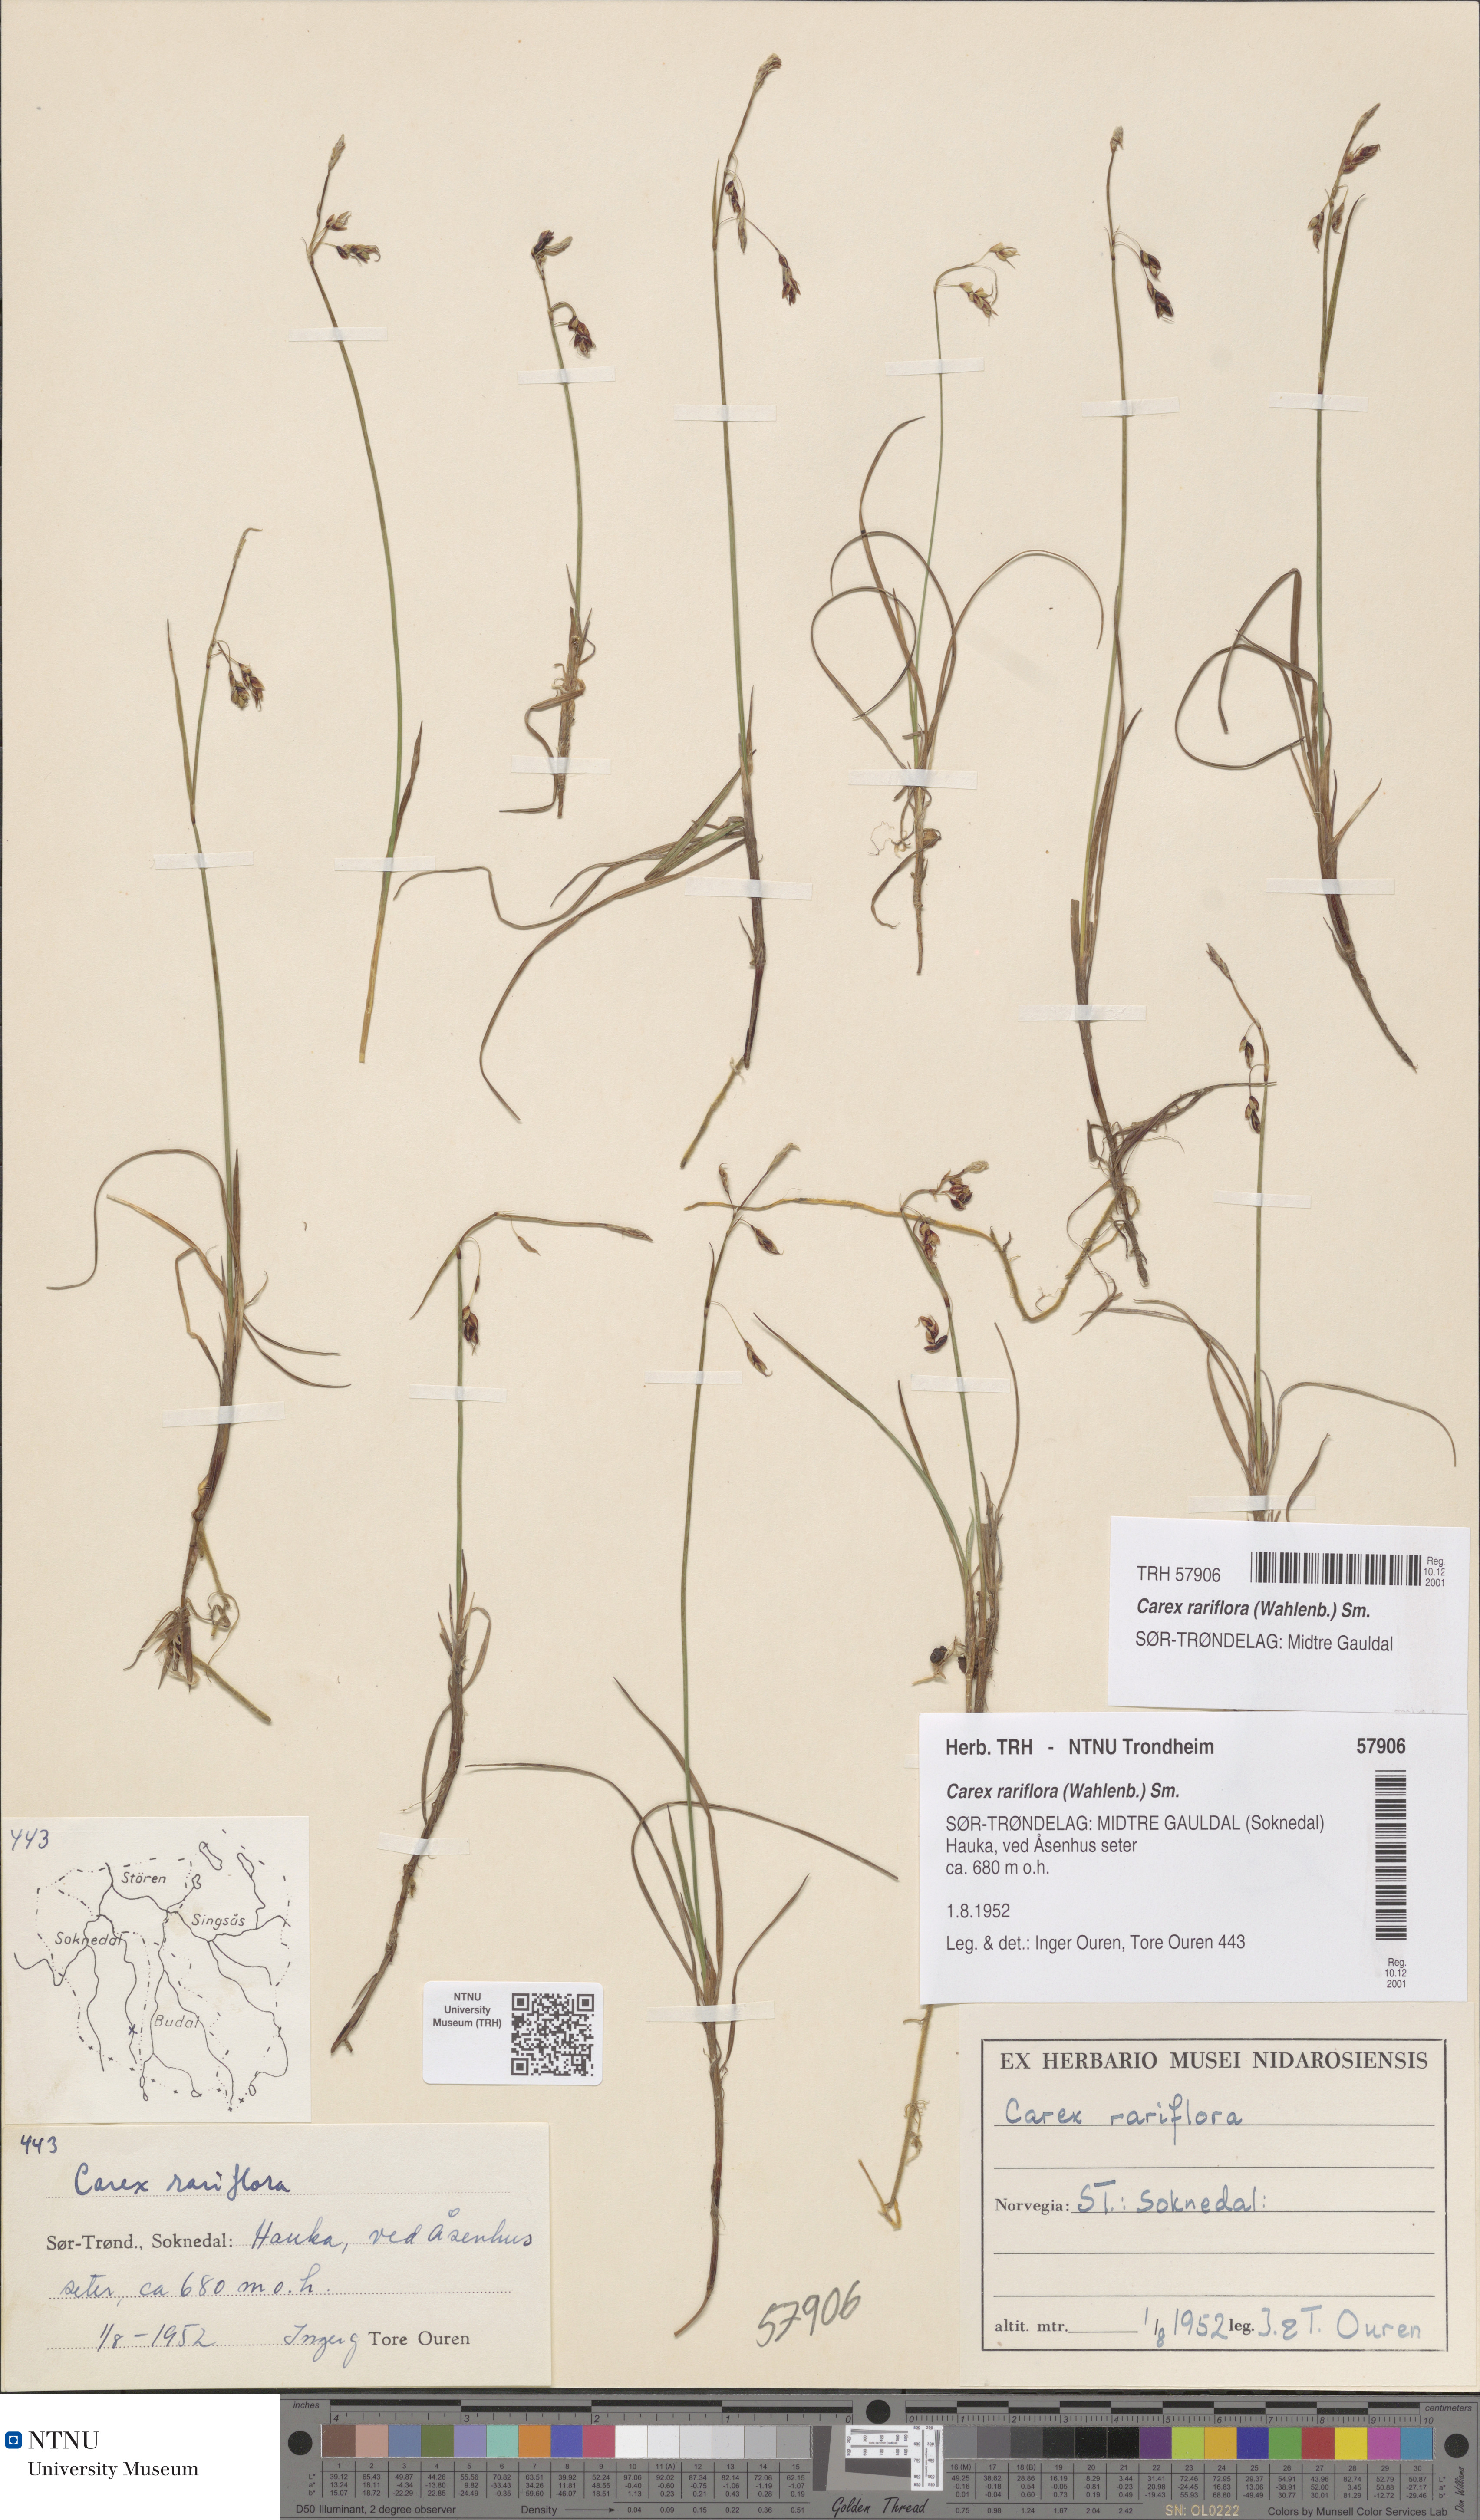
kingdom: Plantae
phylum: Tracheophyta
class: Liliopsida
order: Poales
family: Cyperaceae
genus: Carex
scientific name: Carex rariflora
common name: Loose-flowered alpine sedge
